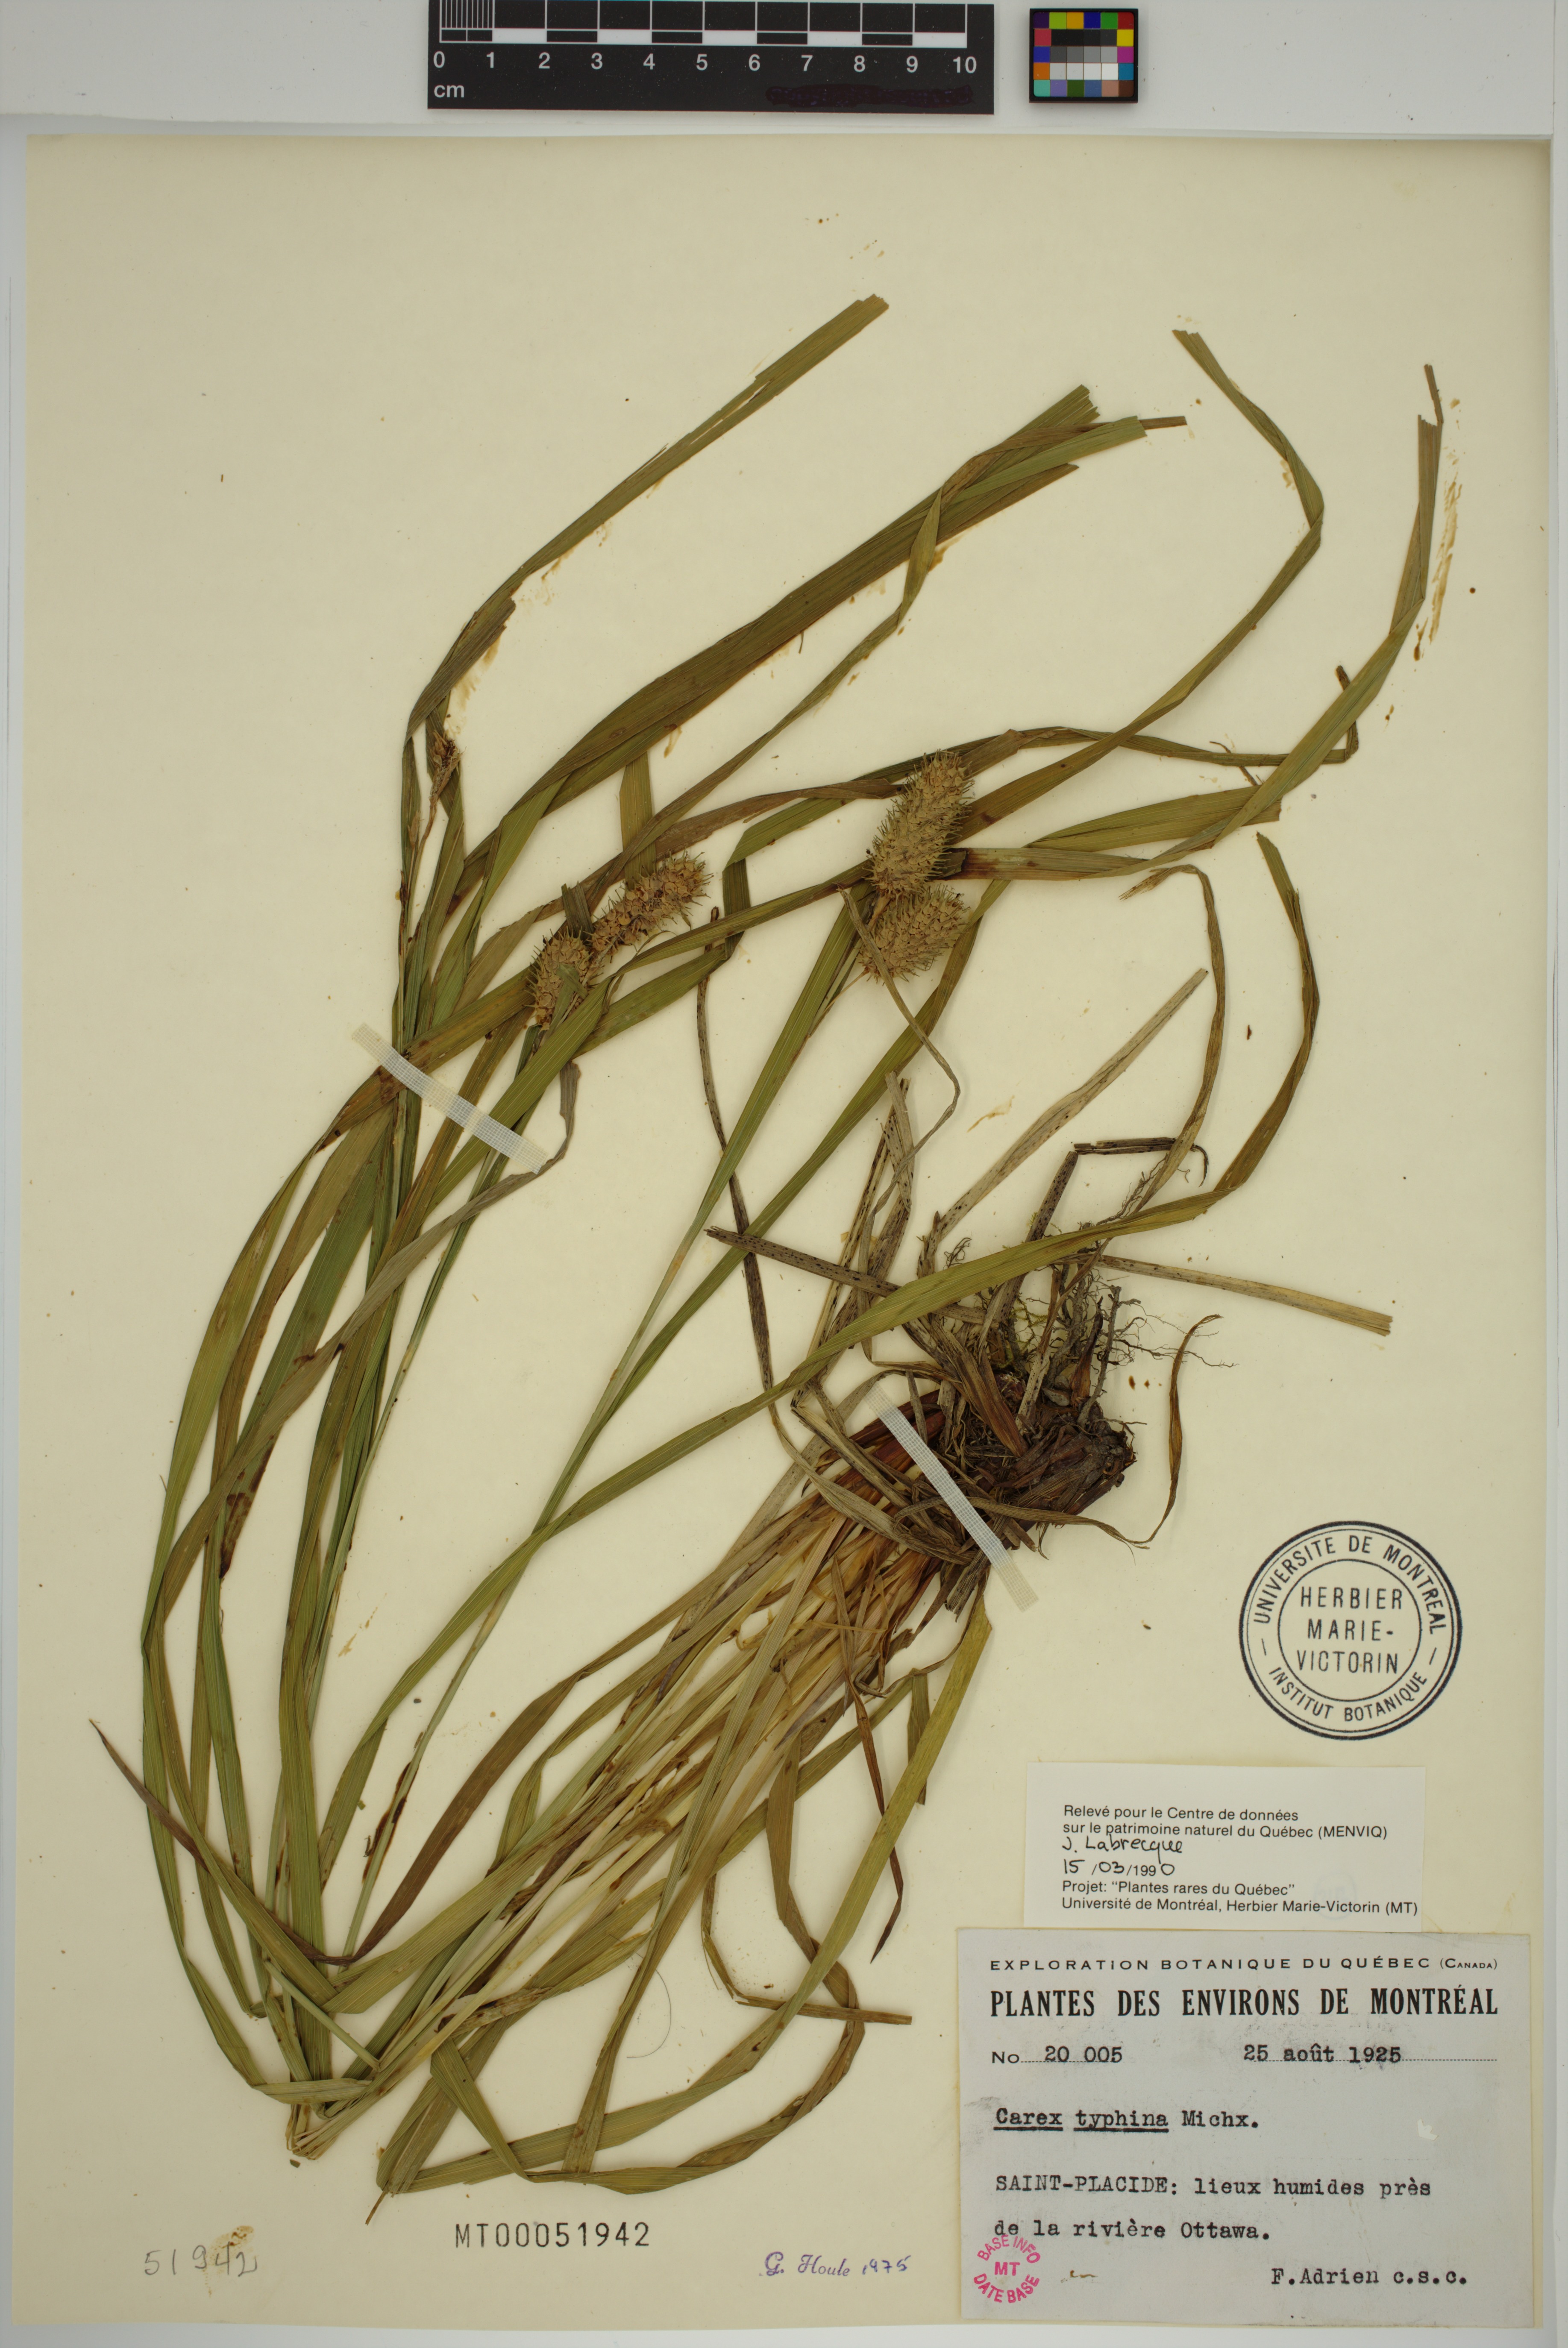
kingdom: Plantae
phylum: Tracheophyta
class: Liliopsida
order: Poales
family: Cyperaceae
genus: Carex
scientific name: Carex typhina
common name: Cattail sedge
